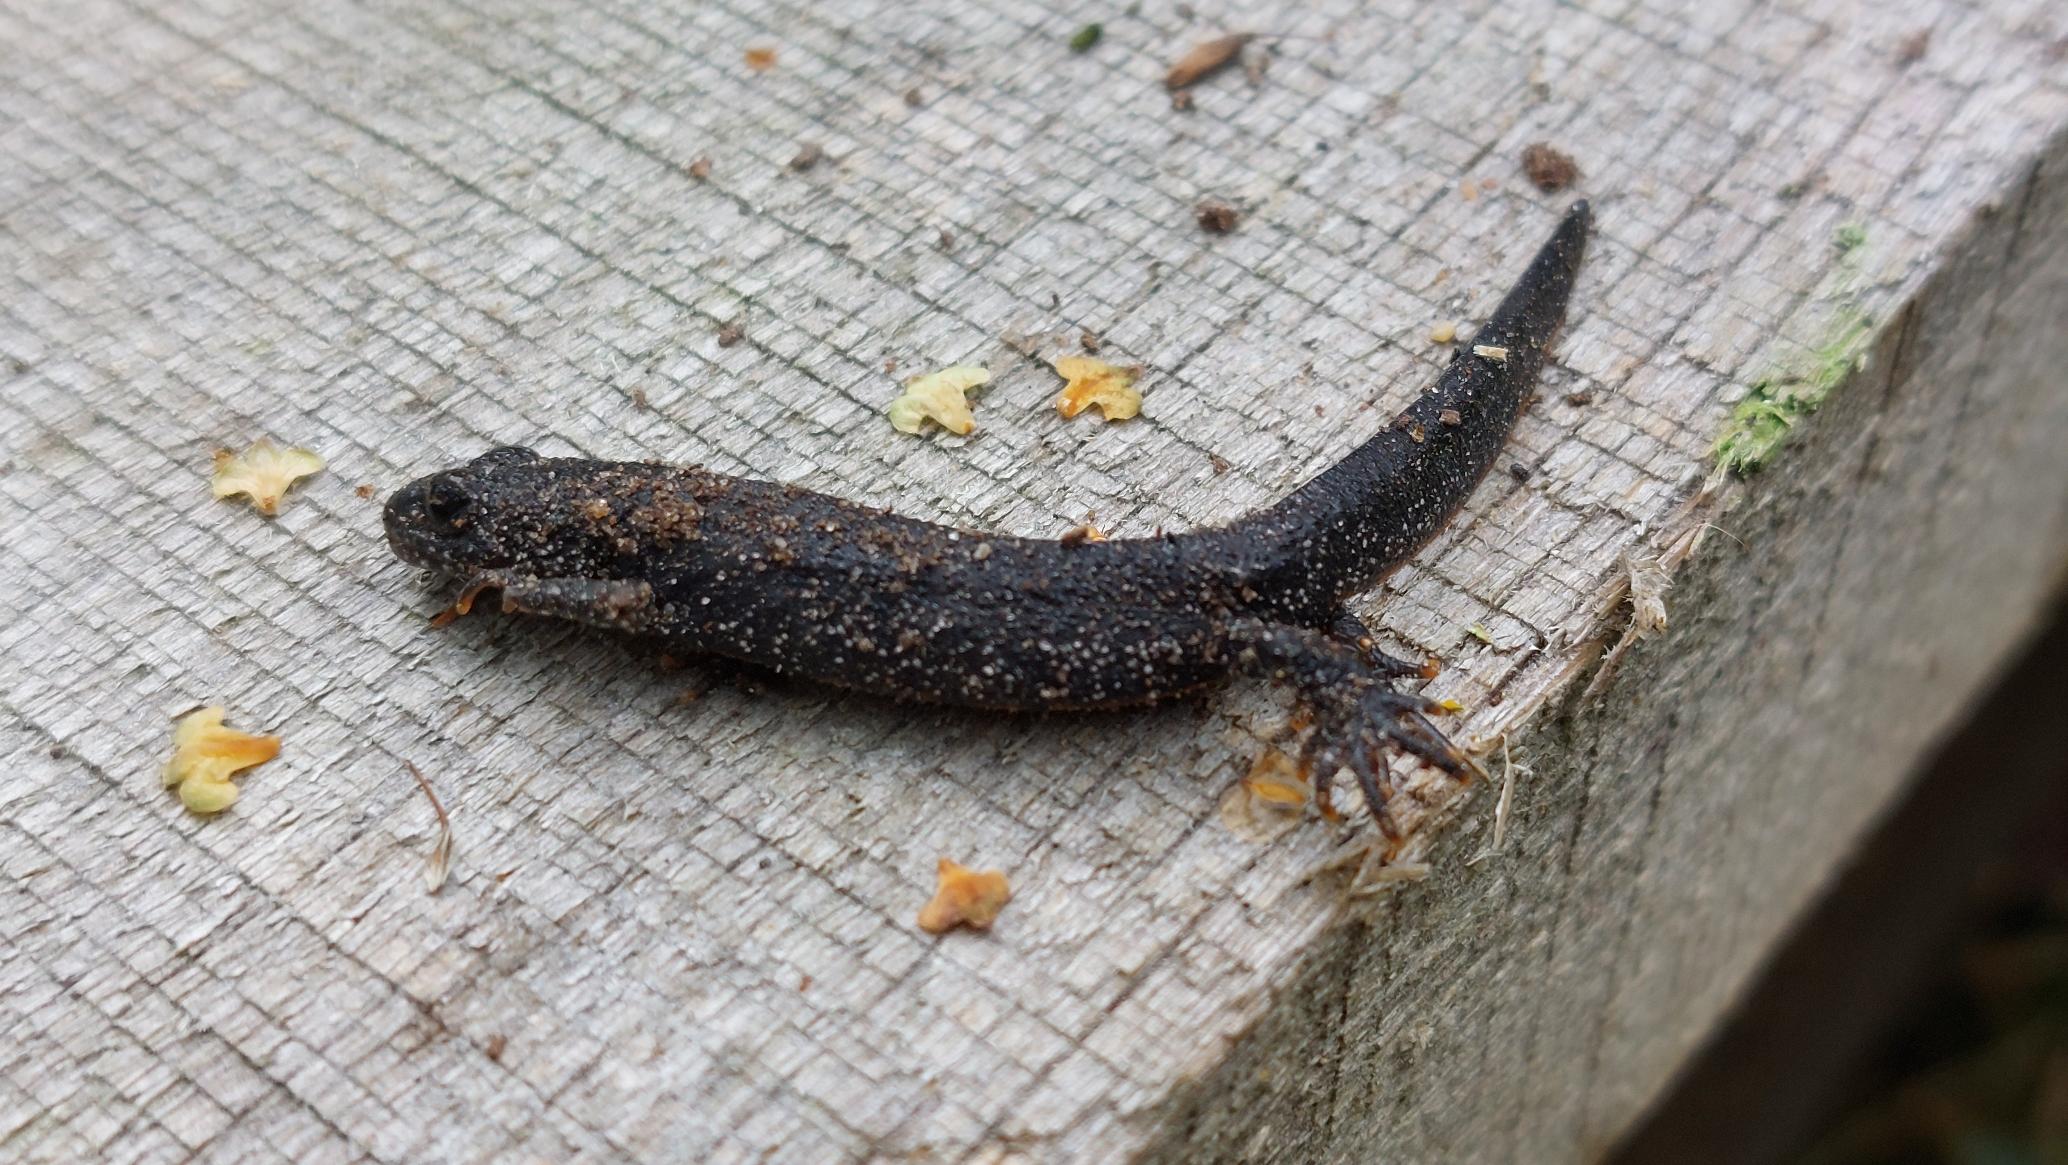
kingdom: Animalia
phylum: Chordata
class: Amphibia
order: Caudata
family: Salamandridae
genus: Triturus
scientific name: Triturus cristatus
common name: Stor vandsalamander
